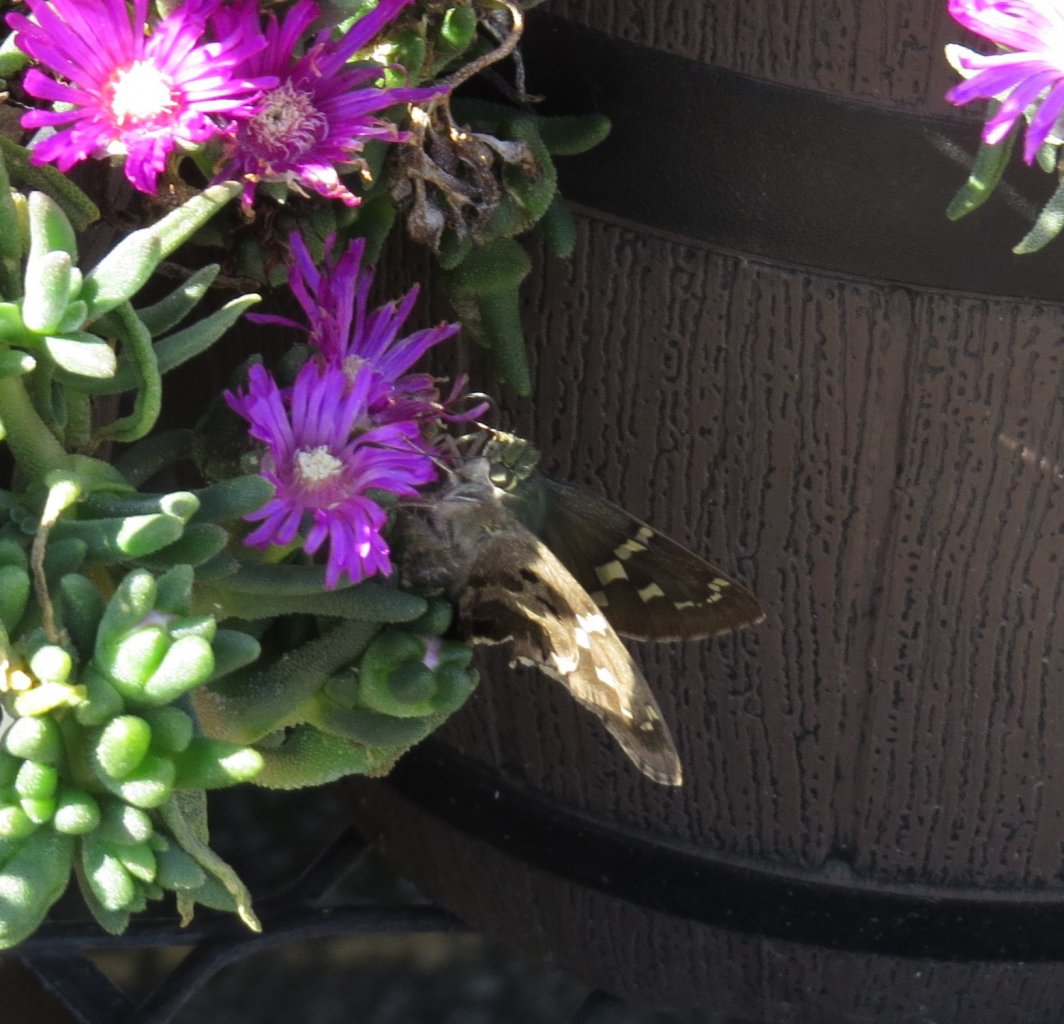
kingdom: Animalia
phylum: Arthropoda
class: Insecta
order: Lepidoptera
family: Hesperiidae
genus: Urbanus
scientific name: Urbanus proteus
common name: Long-tailed Skipper
